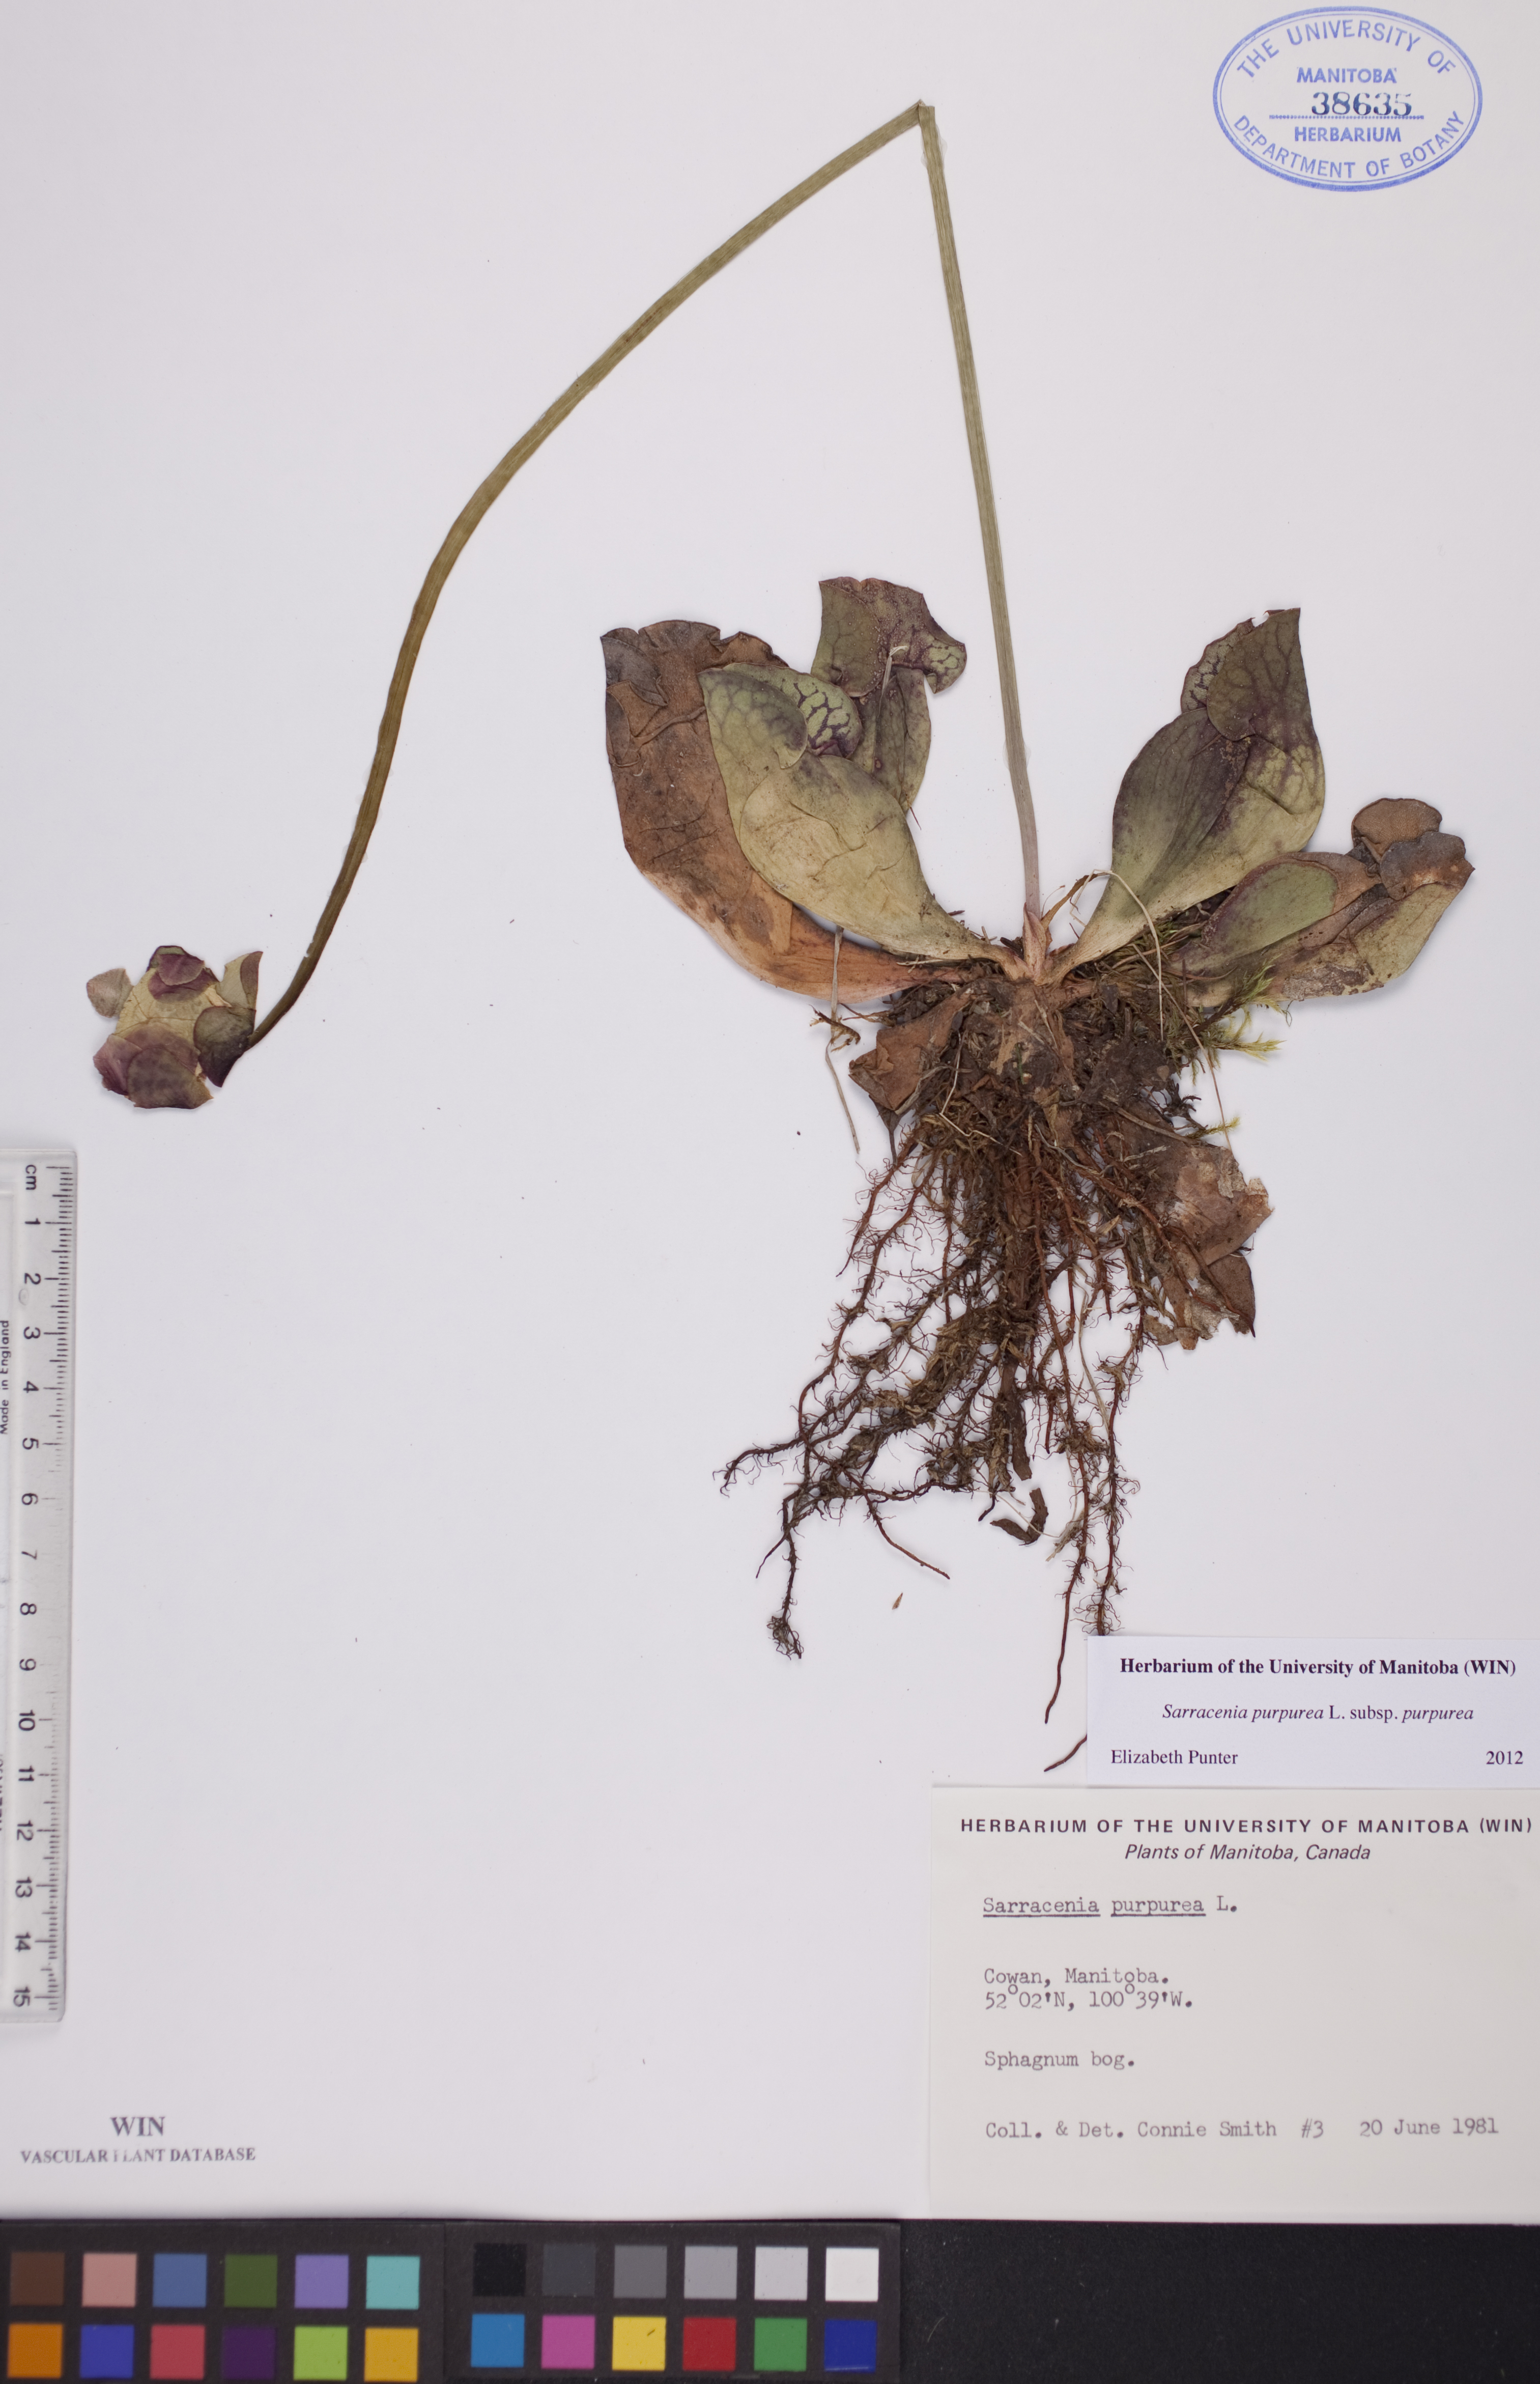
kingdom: Plantae
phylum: Tracheophyta
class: Magnoliopsida
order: Ericales
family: Sarraceniaceae
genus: Sarracenia
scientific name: Sarracenia purpurea
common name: Pitcherplant
